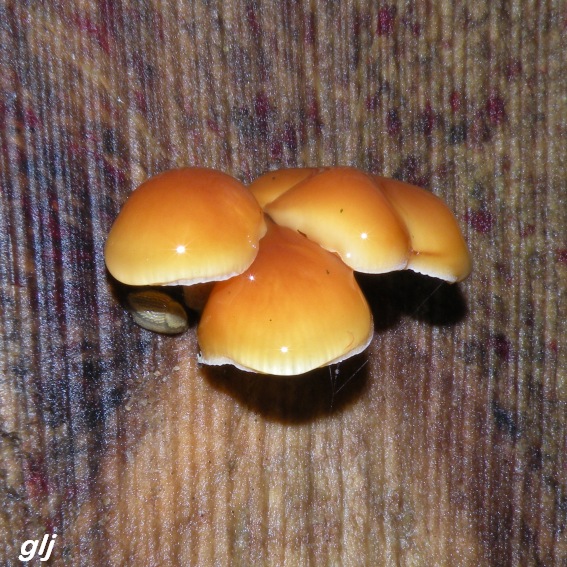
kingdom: Fungi
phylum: Basidiomycota
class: Agaricomycetes
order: Agaricales
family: Physalacriaceae
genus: Flammulina
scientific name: Flammulina velutipes
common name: gul fløjlsfod
